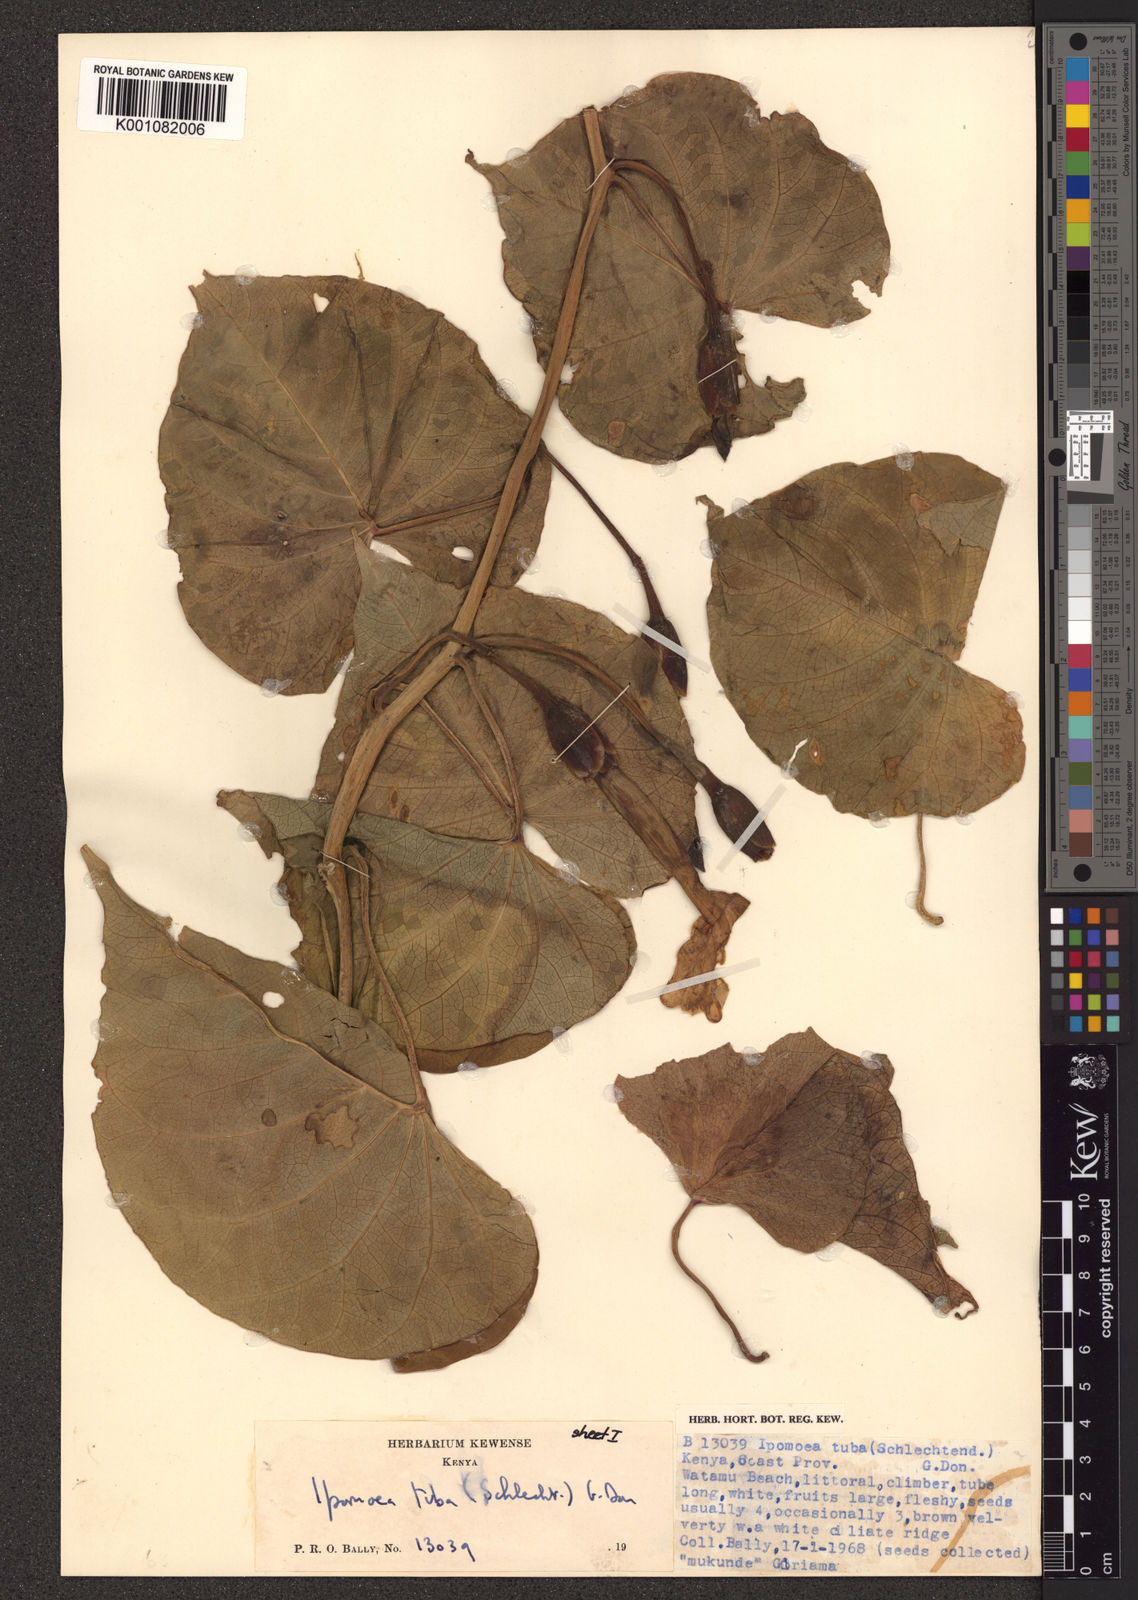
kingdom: Plantae
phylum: Tracheophyta
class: Magnoliopsida
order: Solanales
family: Convolvulaceae
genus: Ipomoea
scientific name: Ipomoea violacea
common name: Beach moonflower
